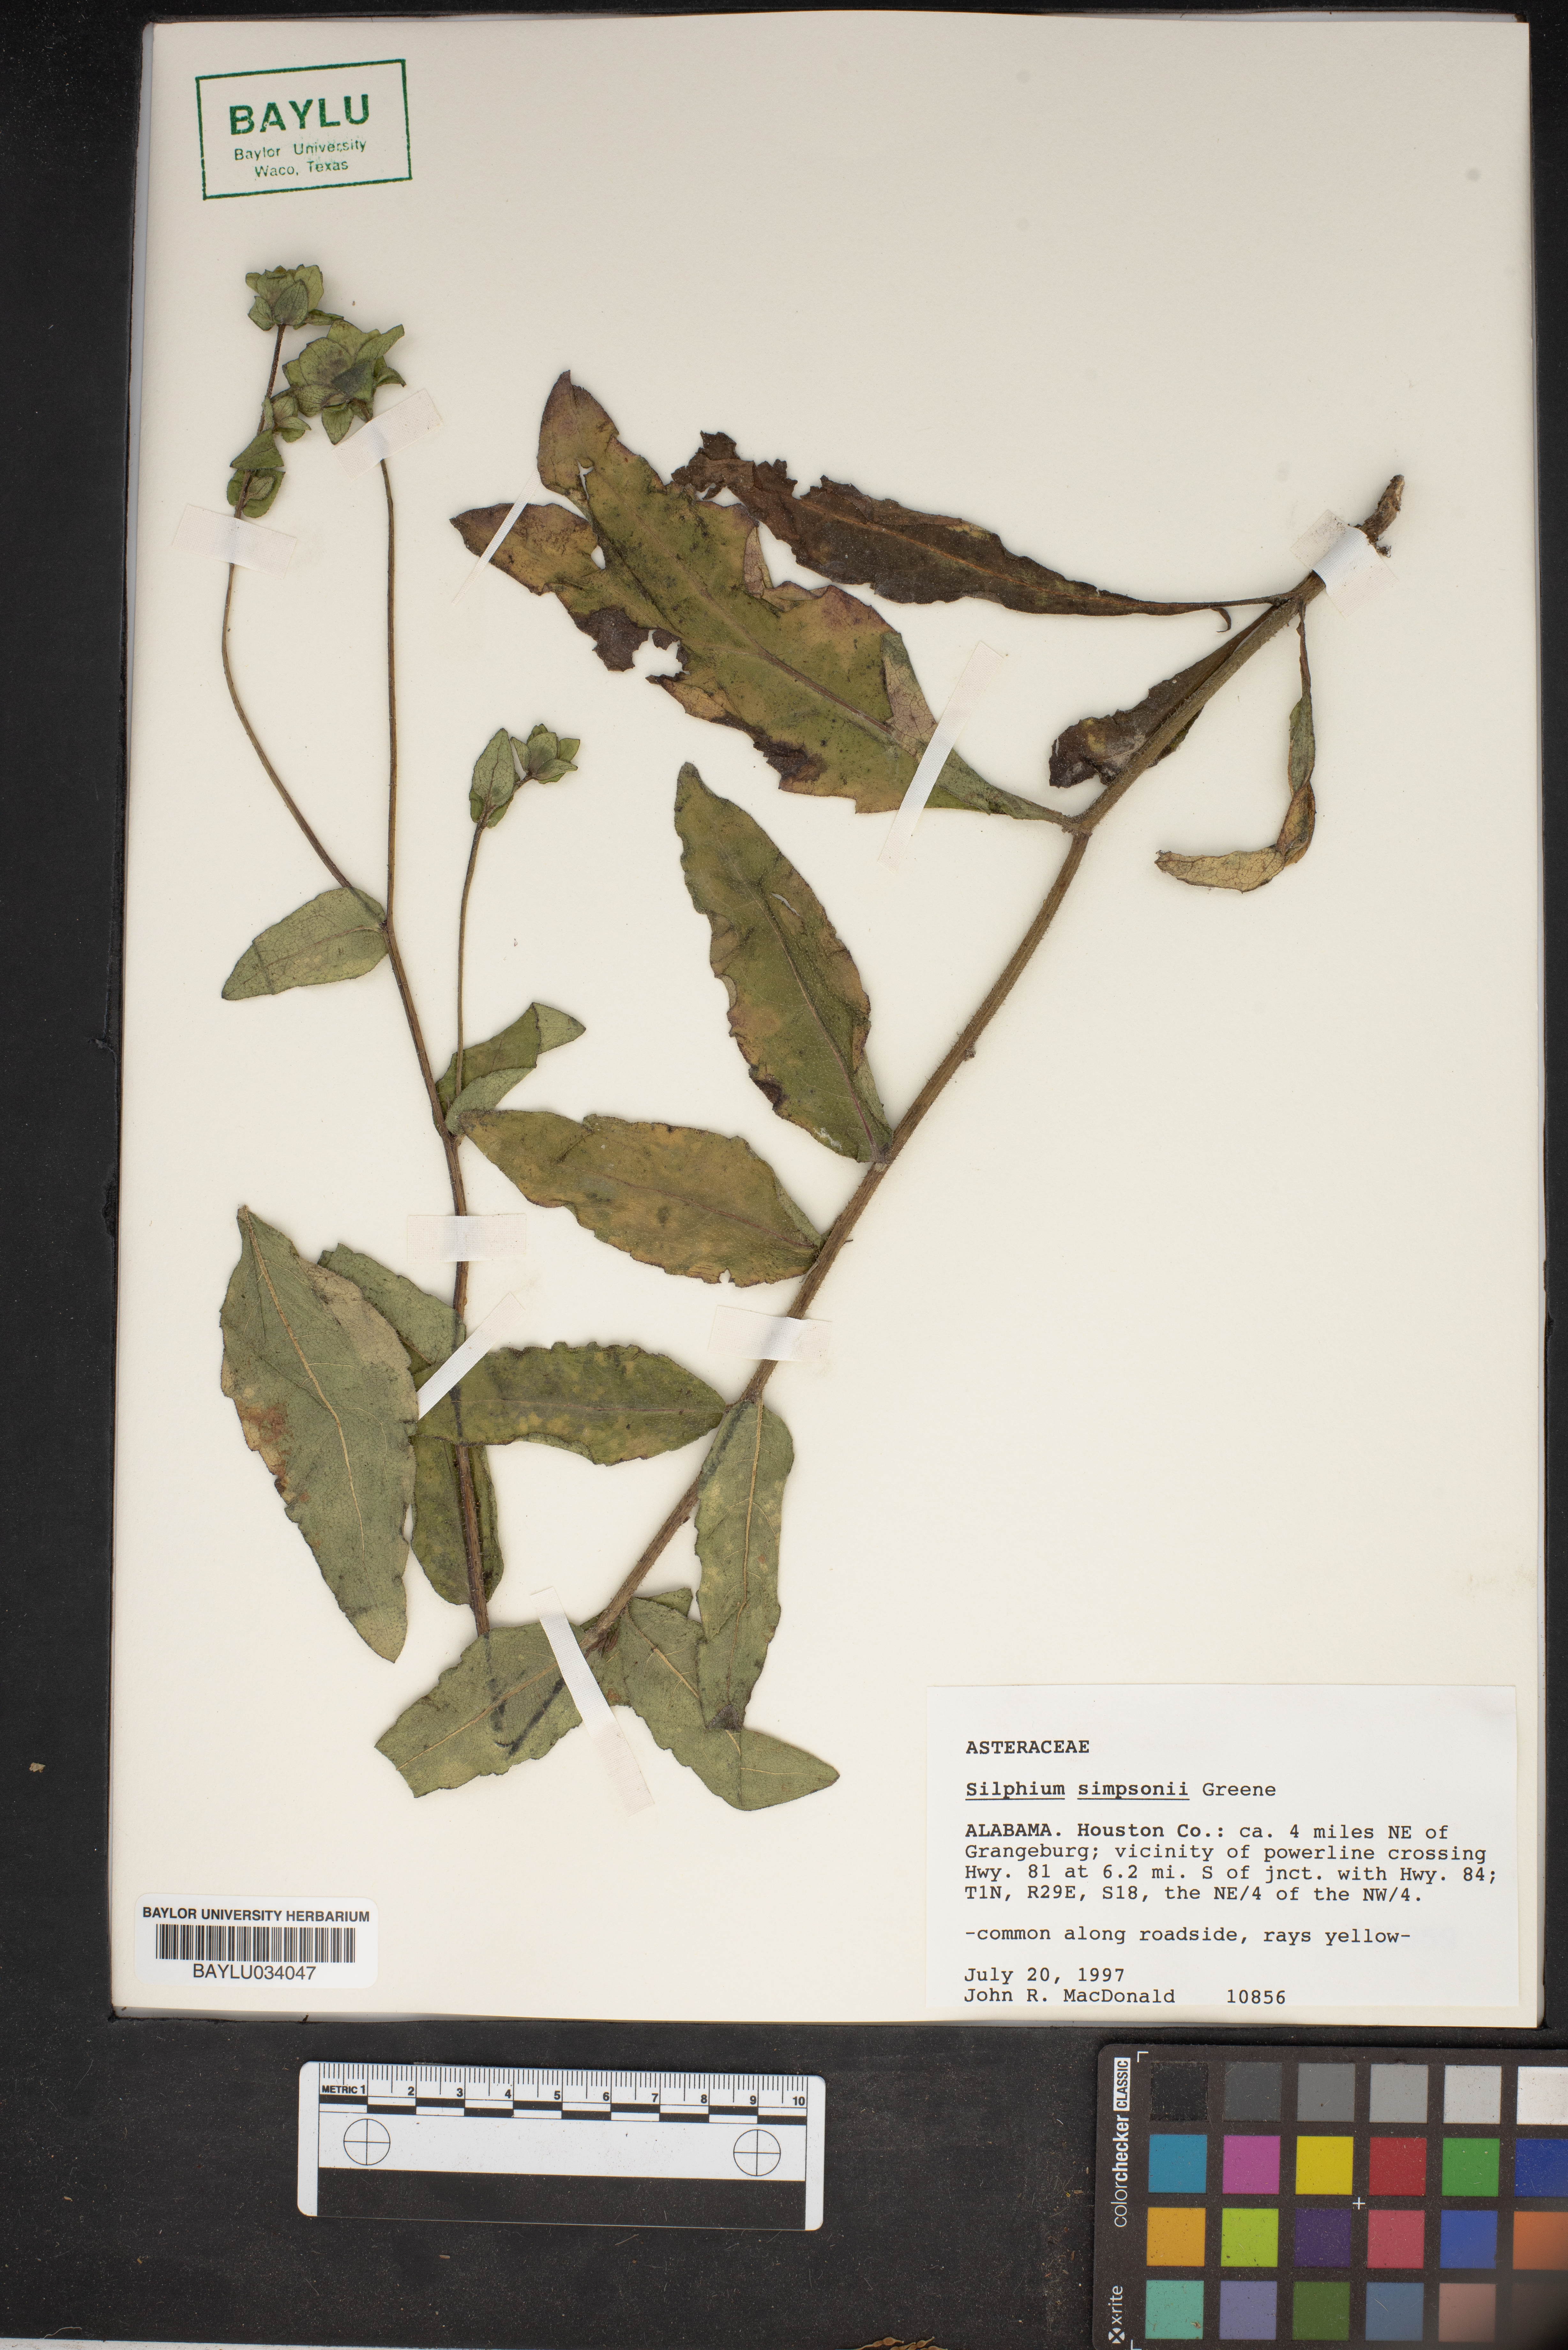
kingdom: Plantae
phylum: Tracheophyta
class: Magnoliopsida
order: Asterales
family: Asteraceae
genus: Silphium
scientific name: Silphium asteriscus
